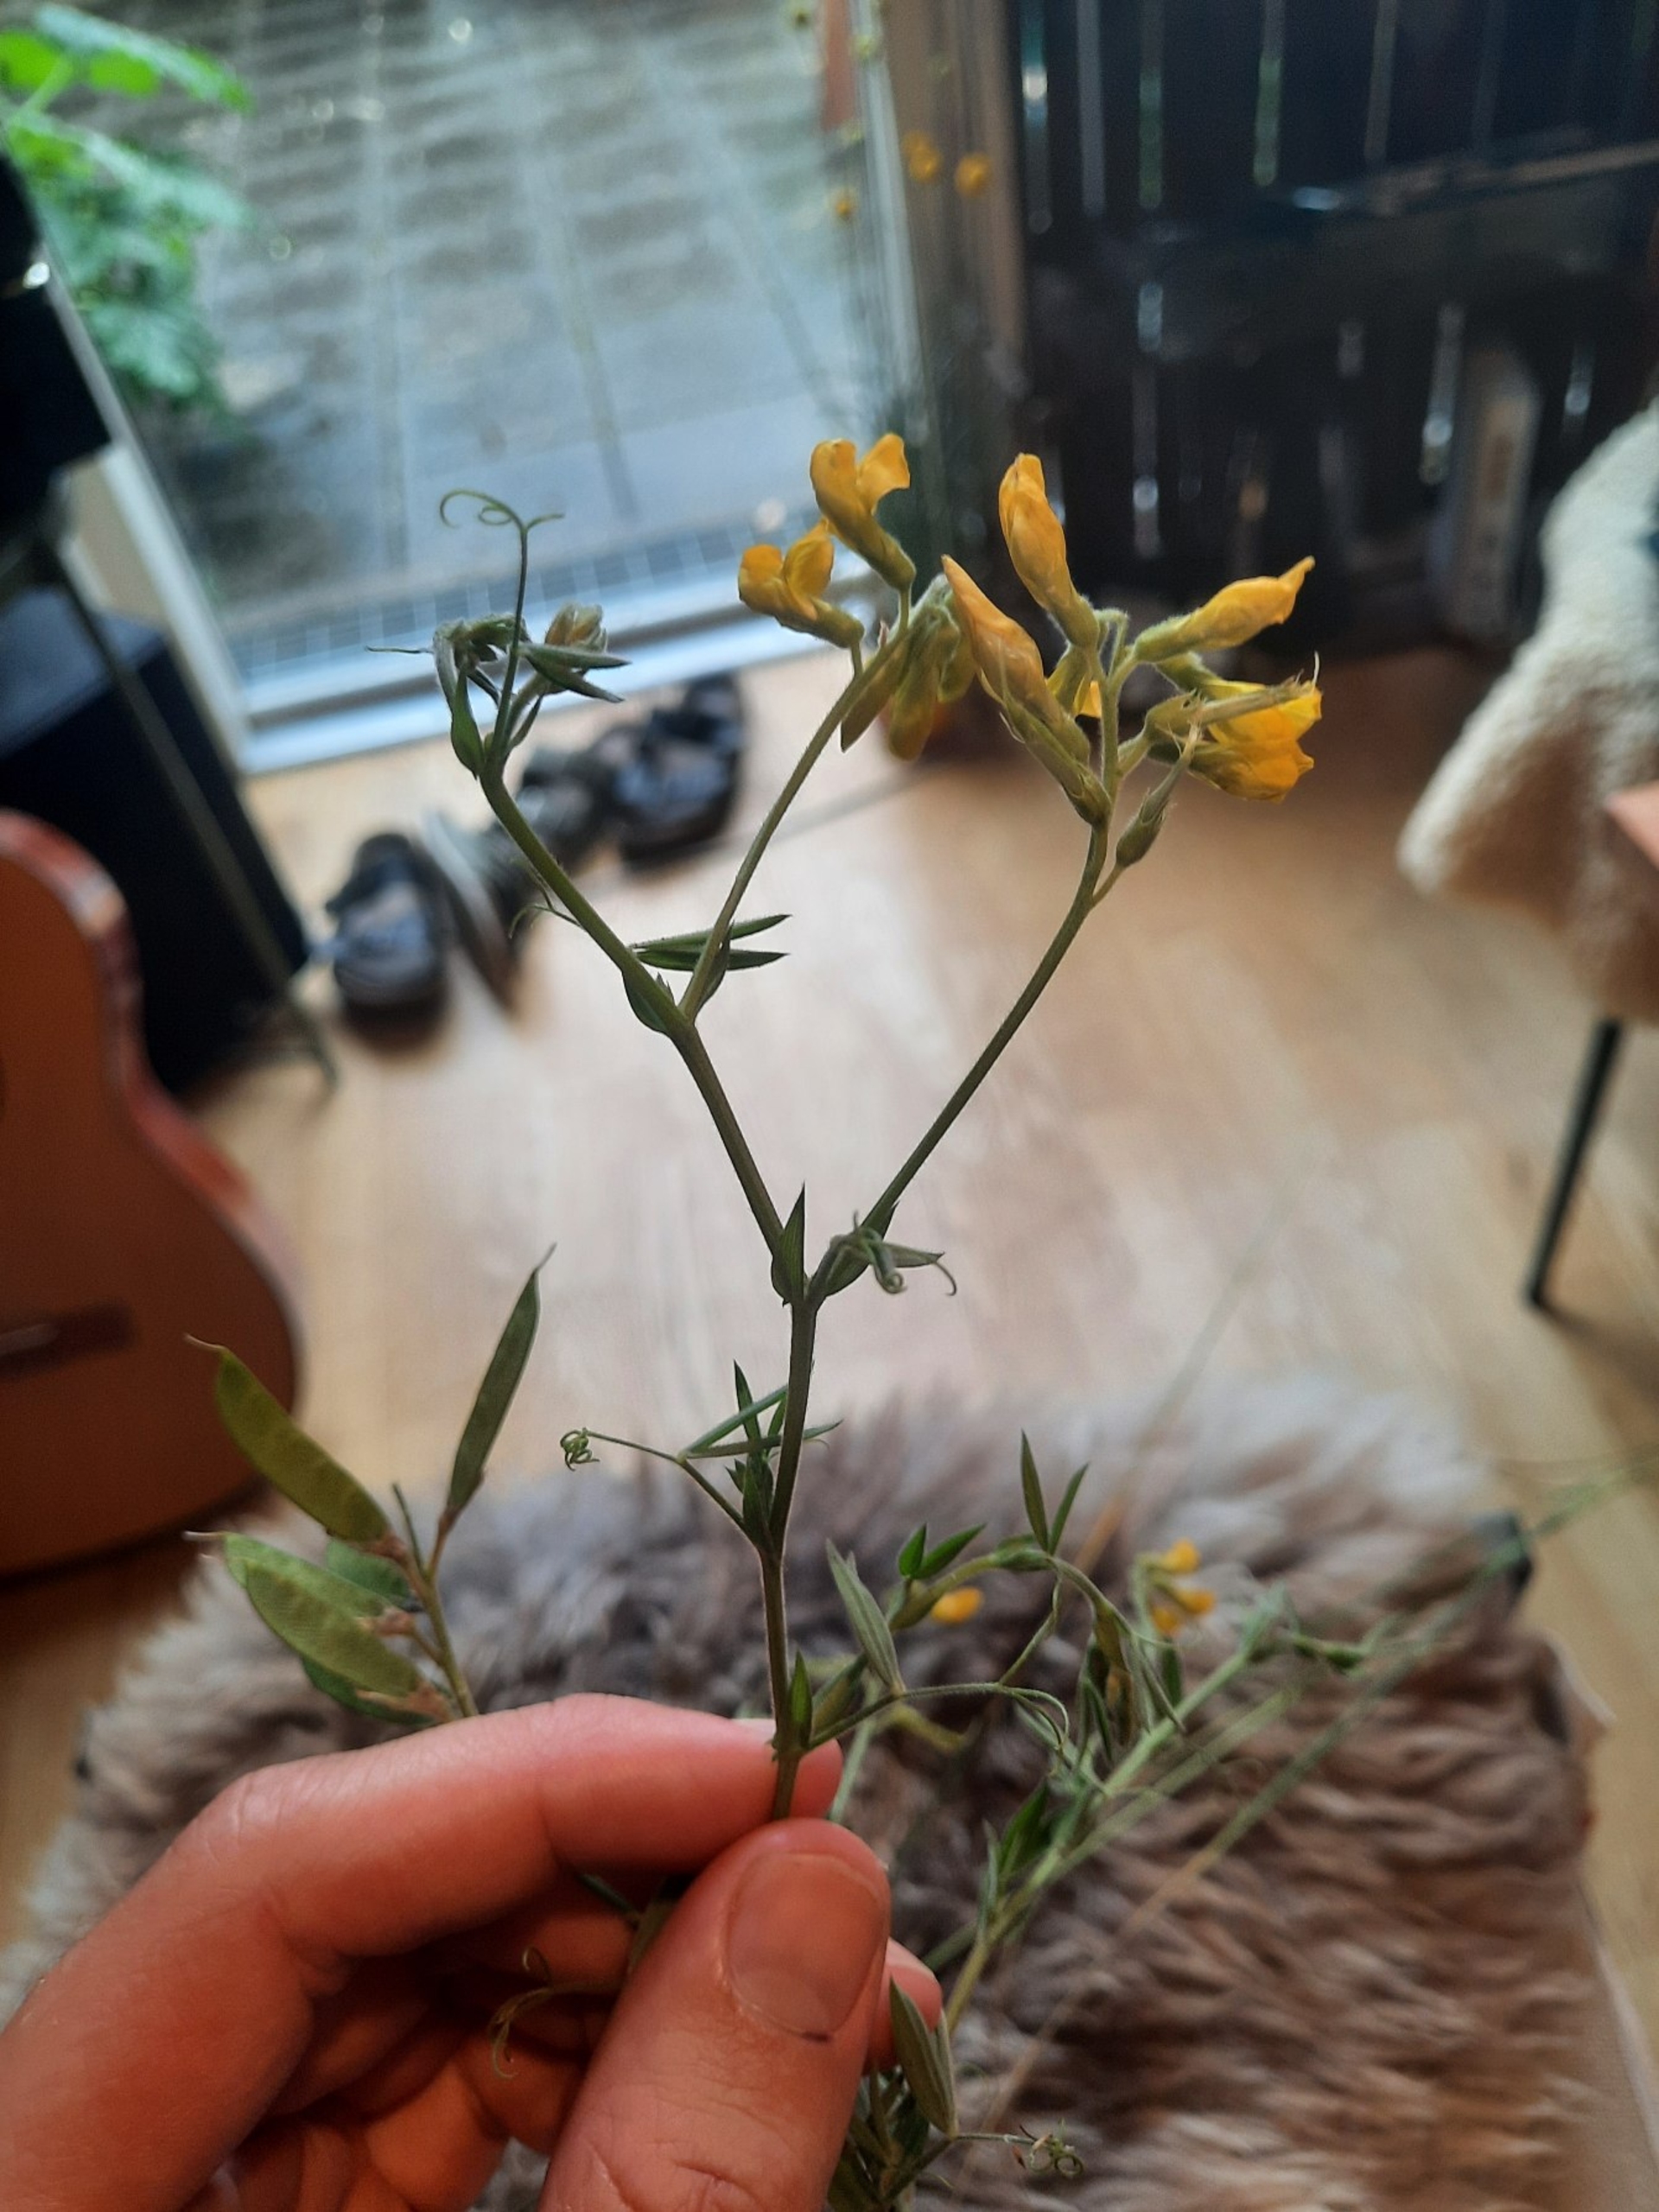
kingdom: Plantae
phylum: Tracheophyta
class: Magnoliopsida
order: Fabales
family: Fabaceae
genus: Lathyrus
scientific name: Lathyrus pratensis
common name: Gul fladbælg
